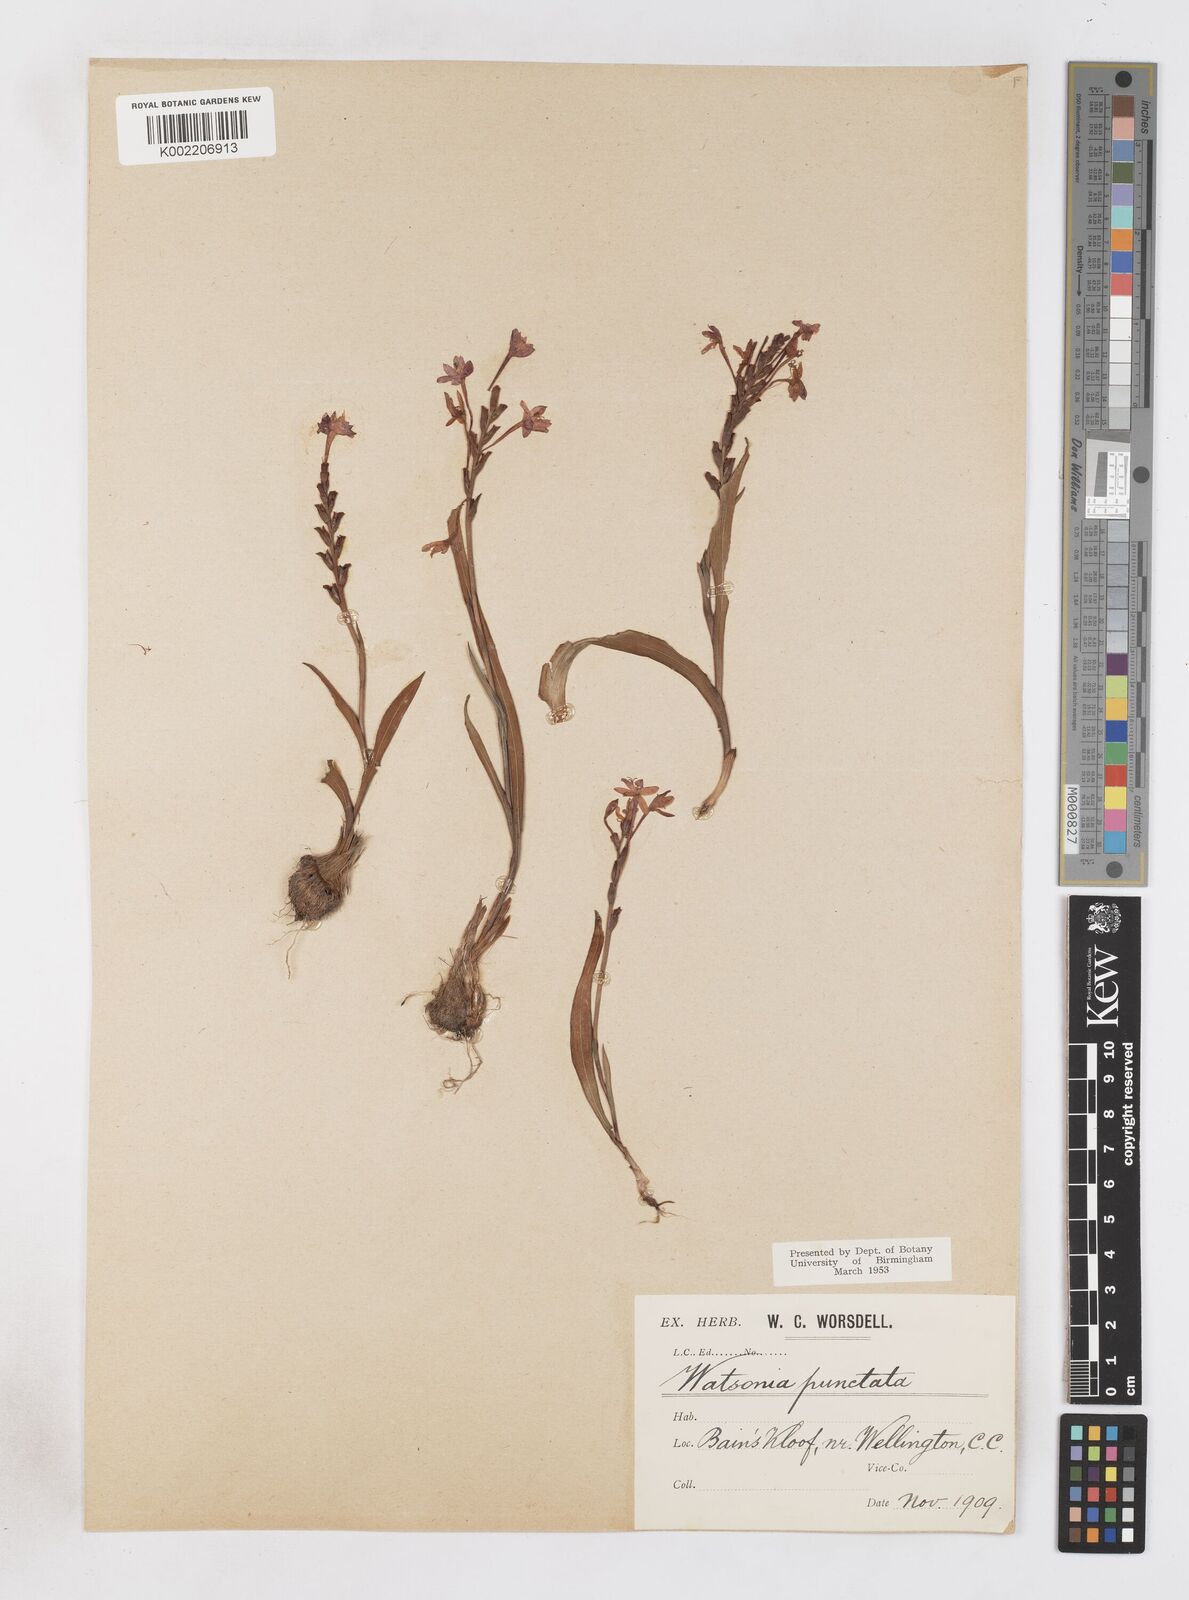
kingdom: Plantae
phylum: Tracheophyta
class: Liliopsida
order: Asparagales
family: Iridaceae
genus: Micranthus
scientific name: Micranthus
